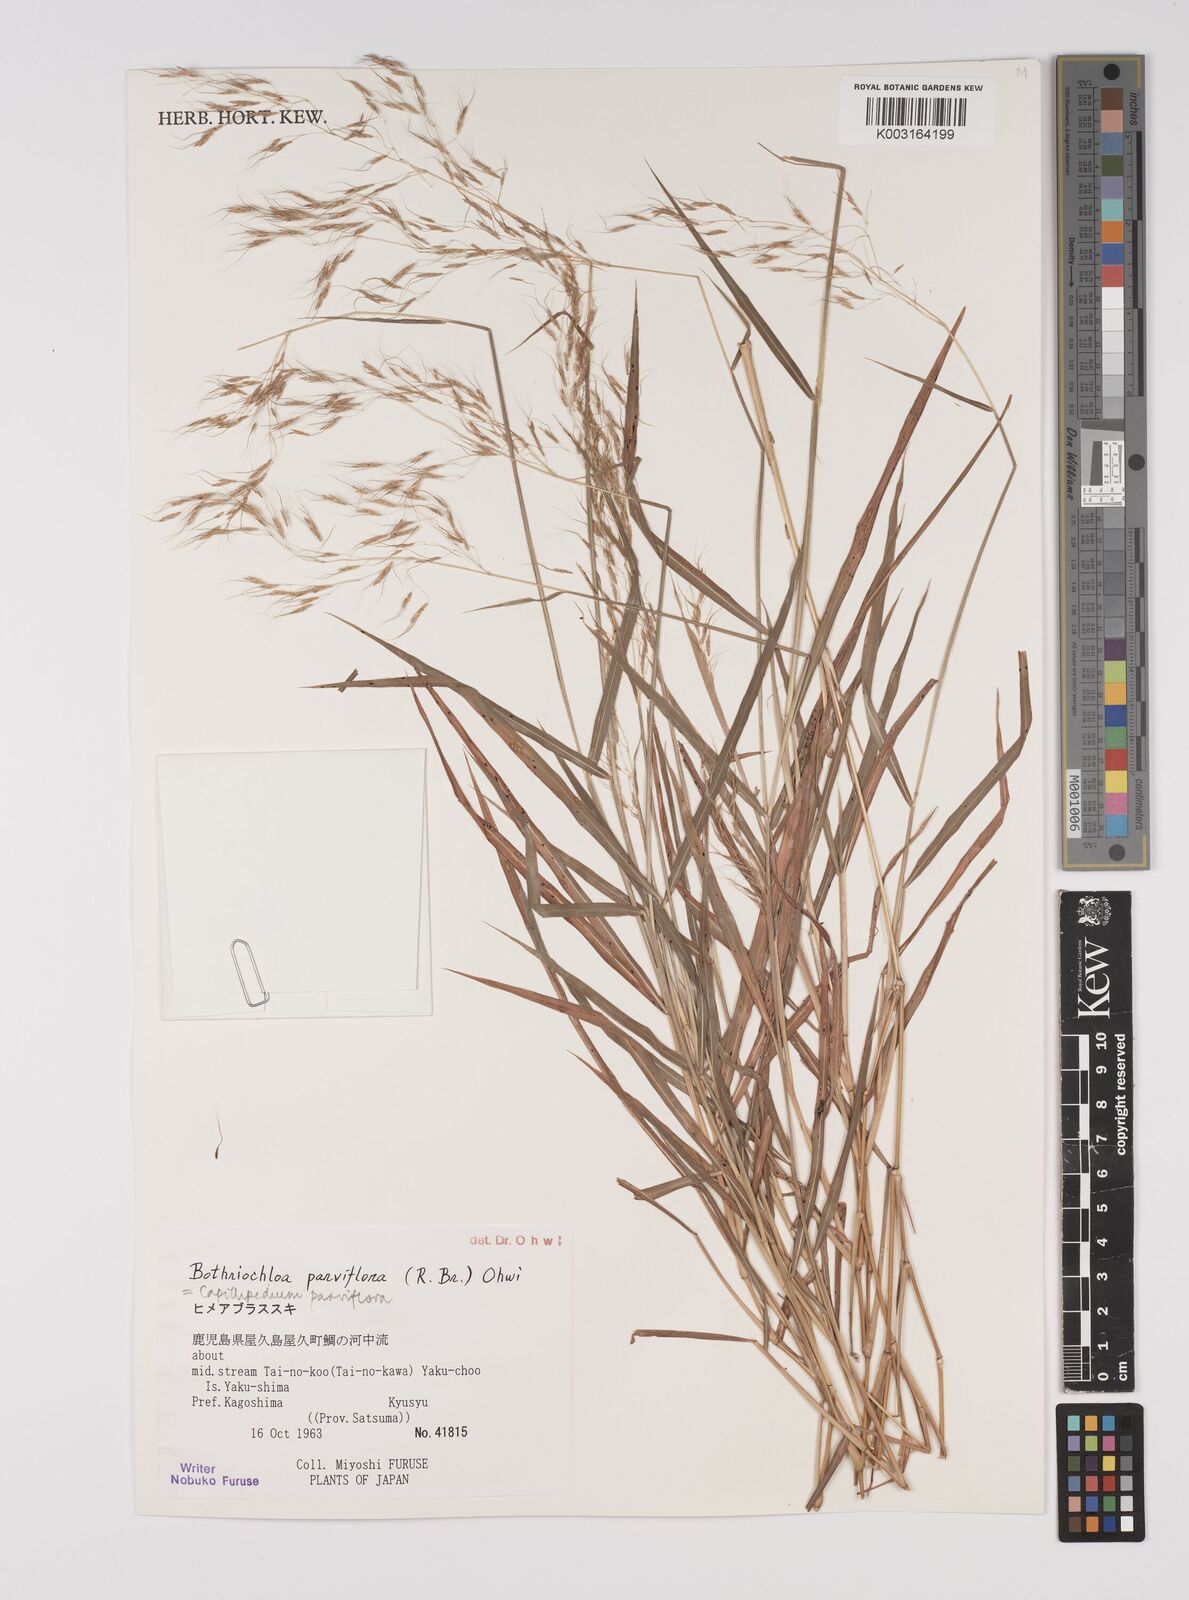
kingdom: Plantae
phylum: Tracheophyta
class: Liliopsida
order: Poales
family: Poaceae
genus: Capillipedium
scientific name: Capillipedium parviflorum
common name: Golden-beard
